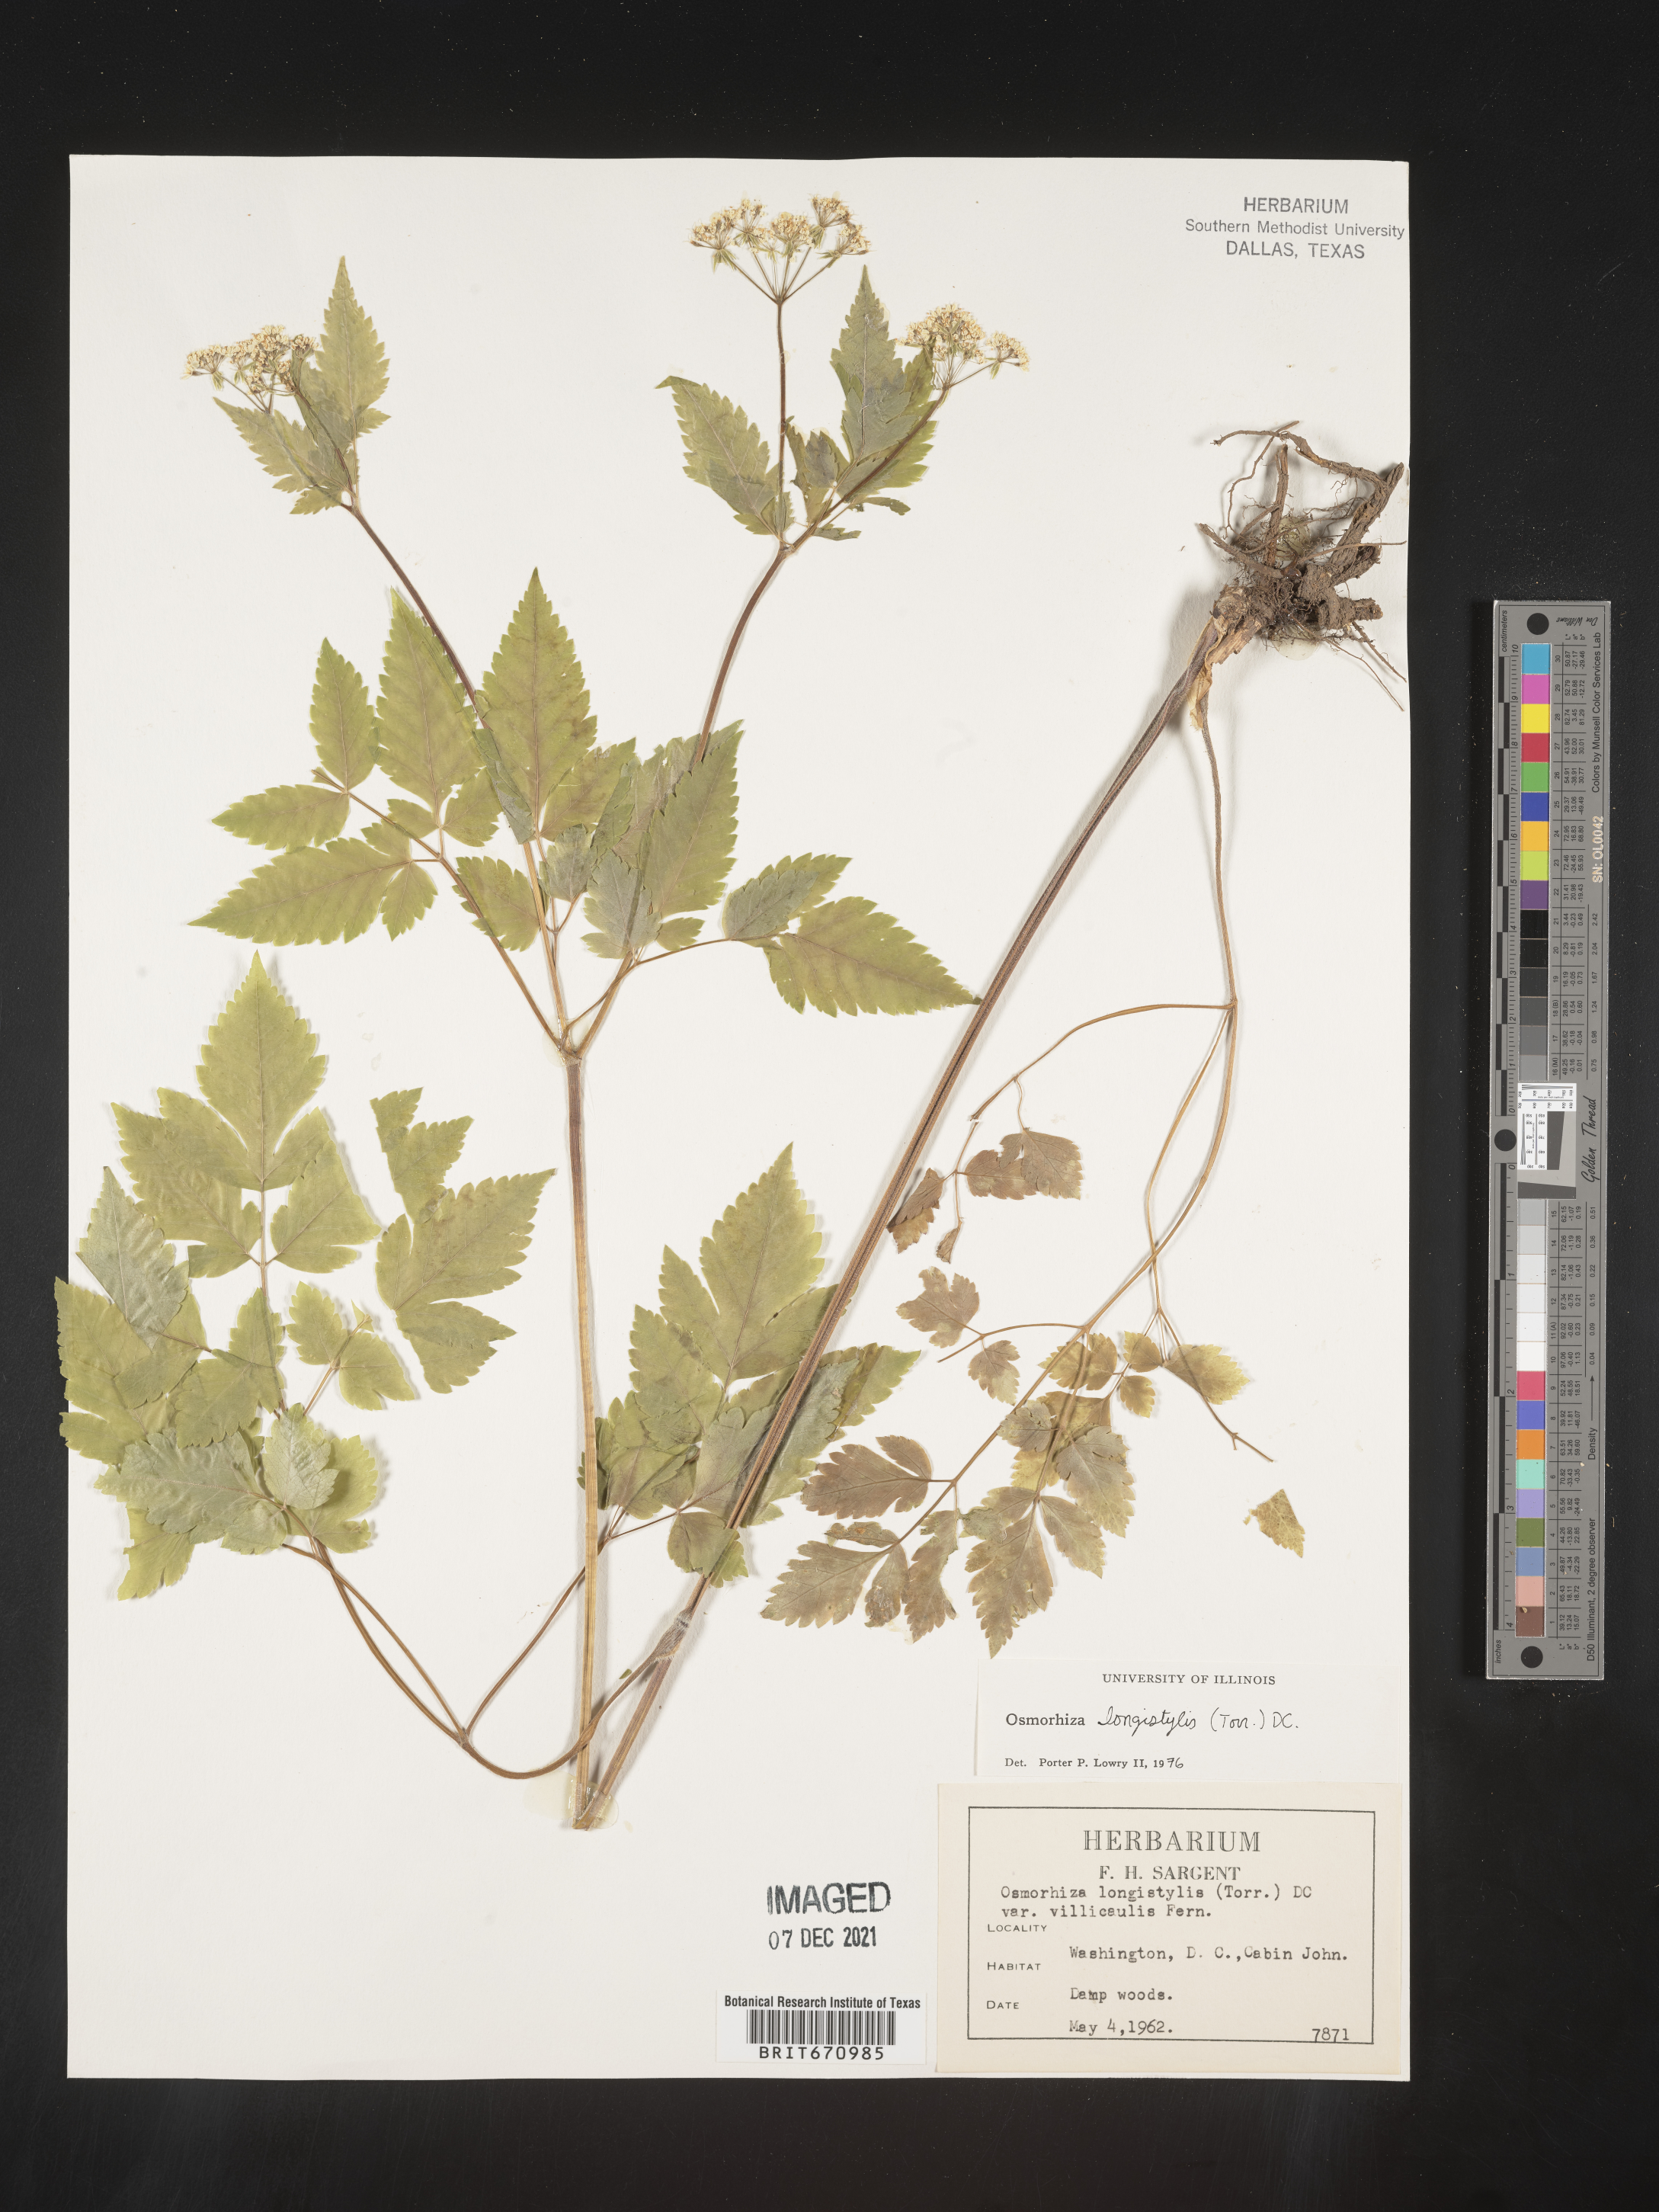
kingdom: Plantae
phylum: Tracheophyta
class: Magnoliopsida
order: Apiales
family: Apiaceae
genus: Osmorhiza
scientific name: Osmorhiza longistylis
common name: Smooth sweet cicely
